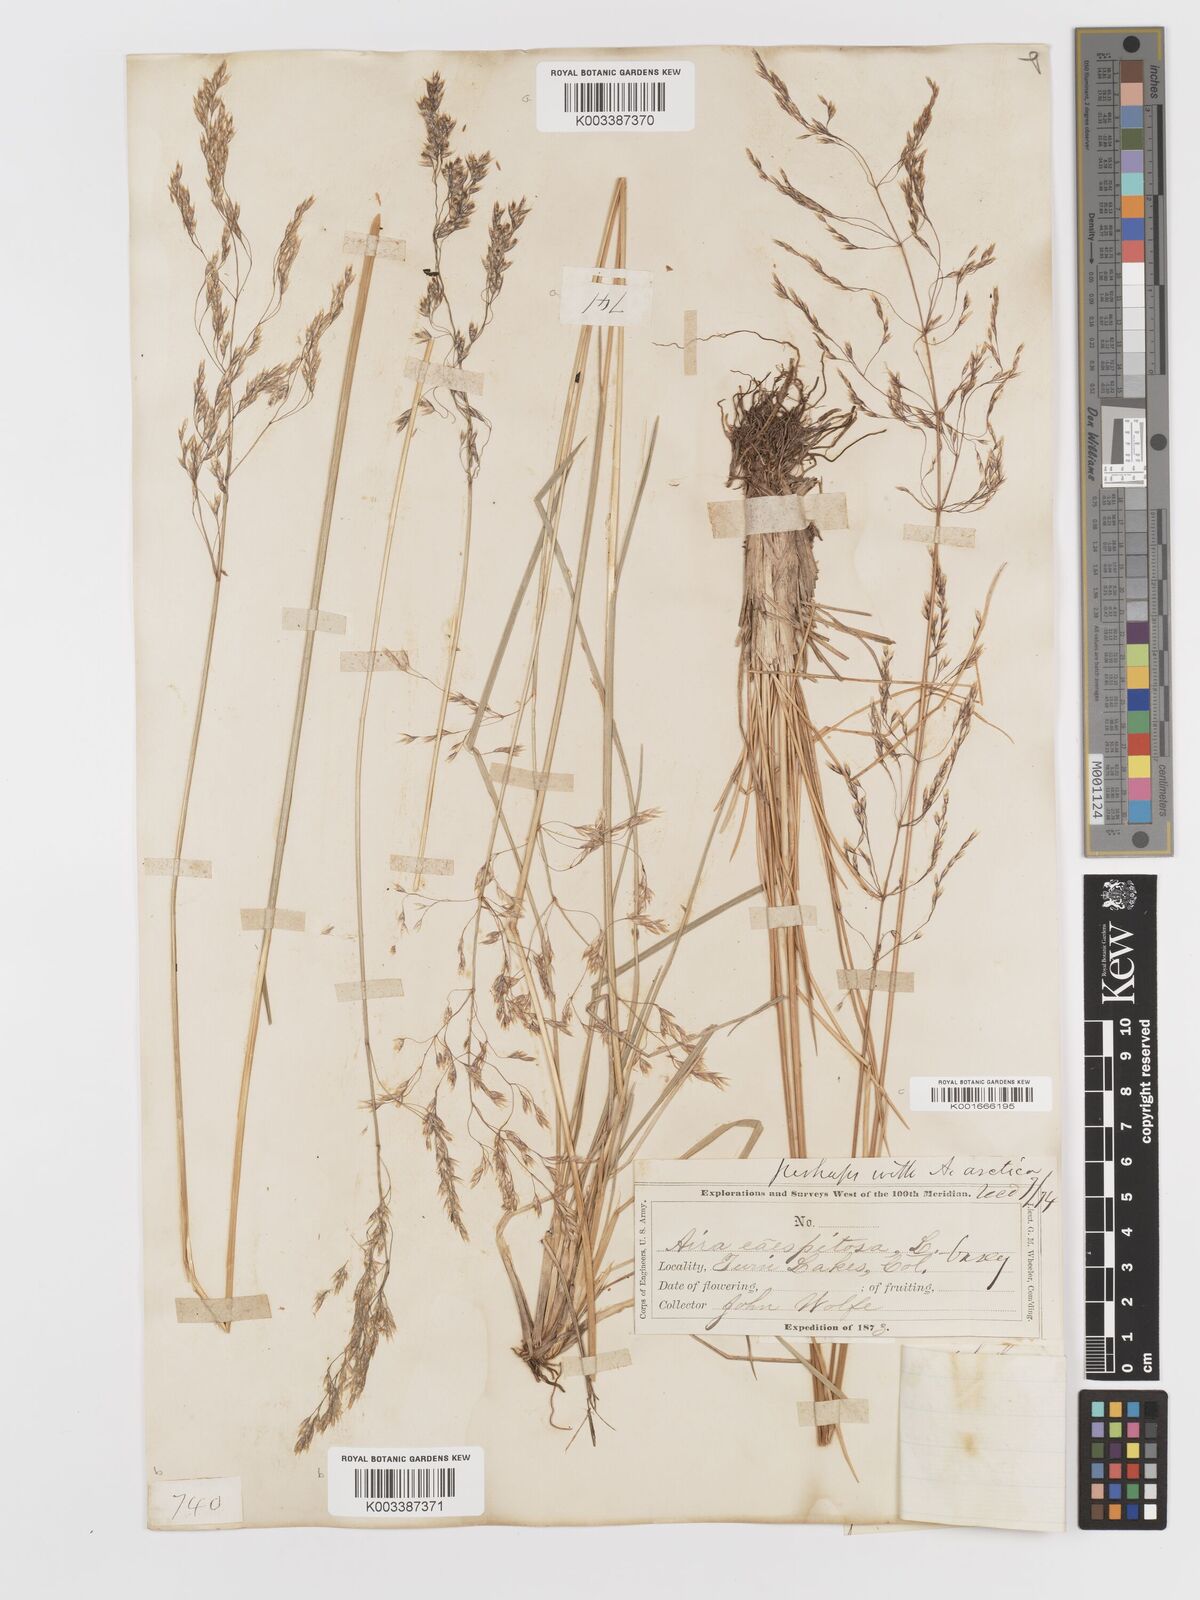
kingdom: Plantae
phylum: Tracheophyta
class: Liliopsida
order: Poales
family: Poaceae
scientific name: Poaceae
